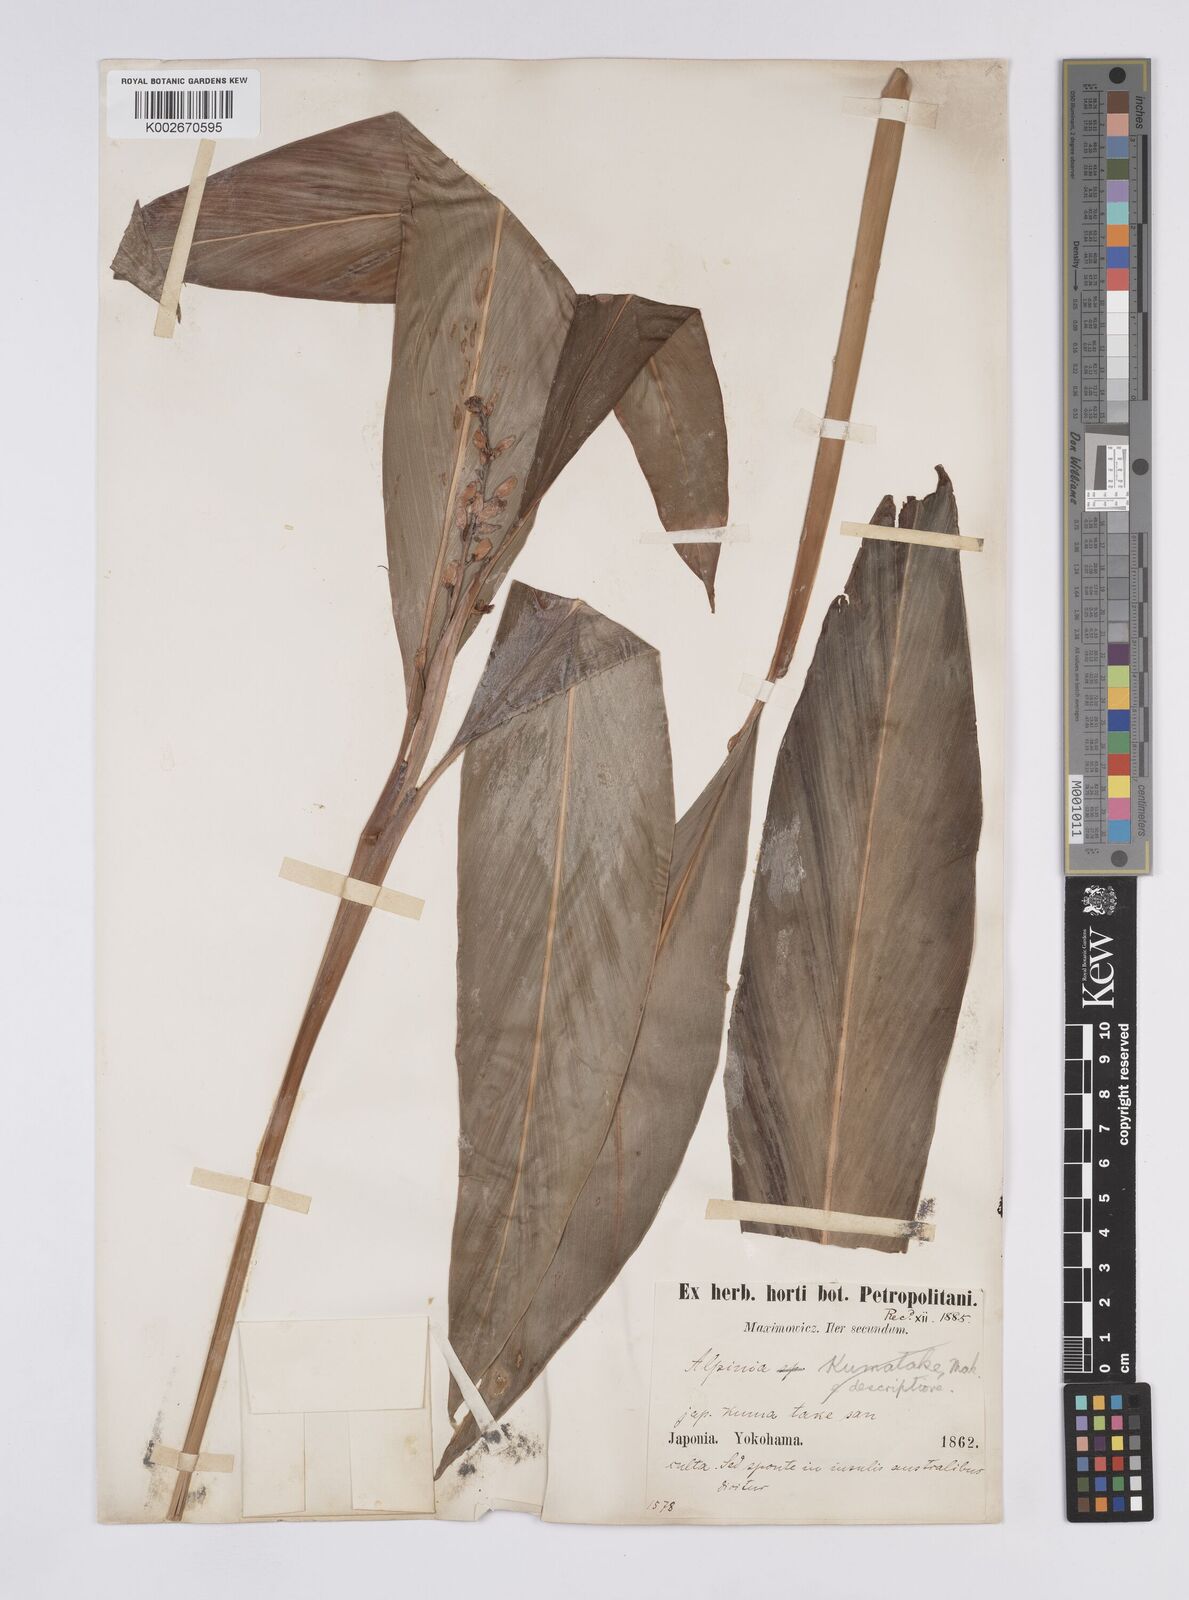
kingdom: Plantae
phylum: Tracheophyta
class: Liliopsida
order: Zingiberales
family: Zingiberaceae
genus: Alpinia
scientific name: Alpinia intermedia
